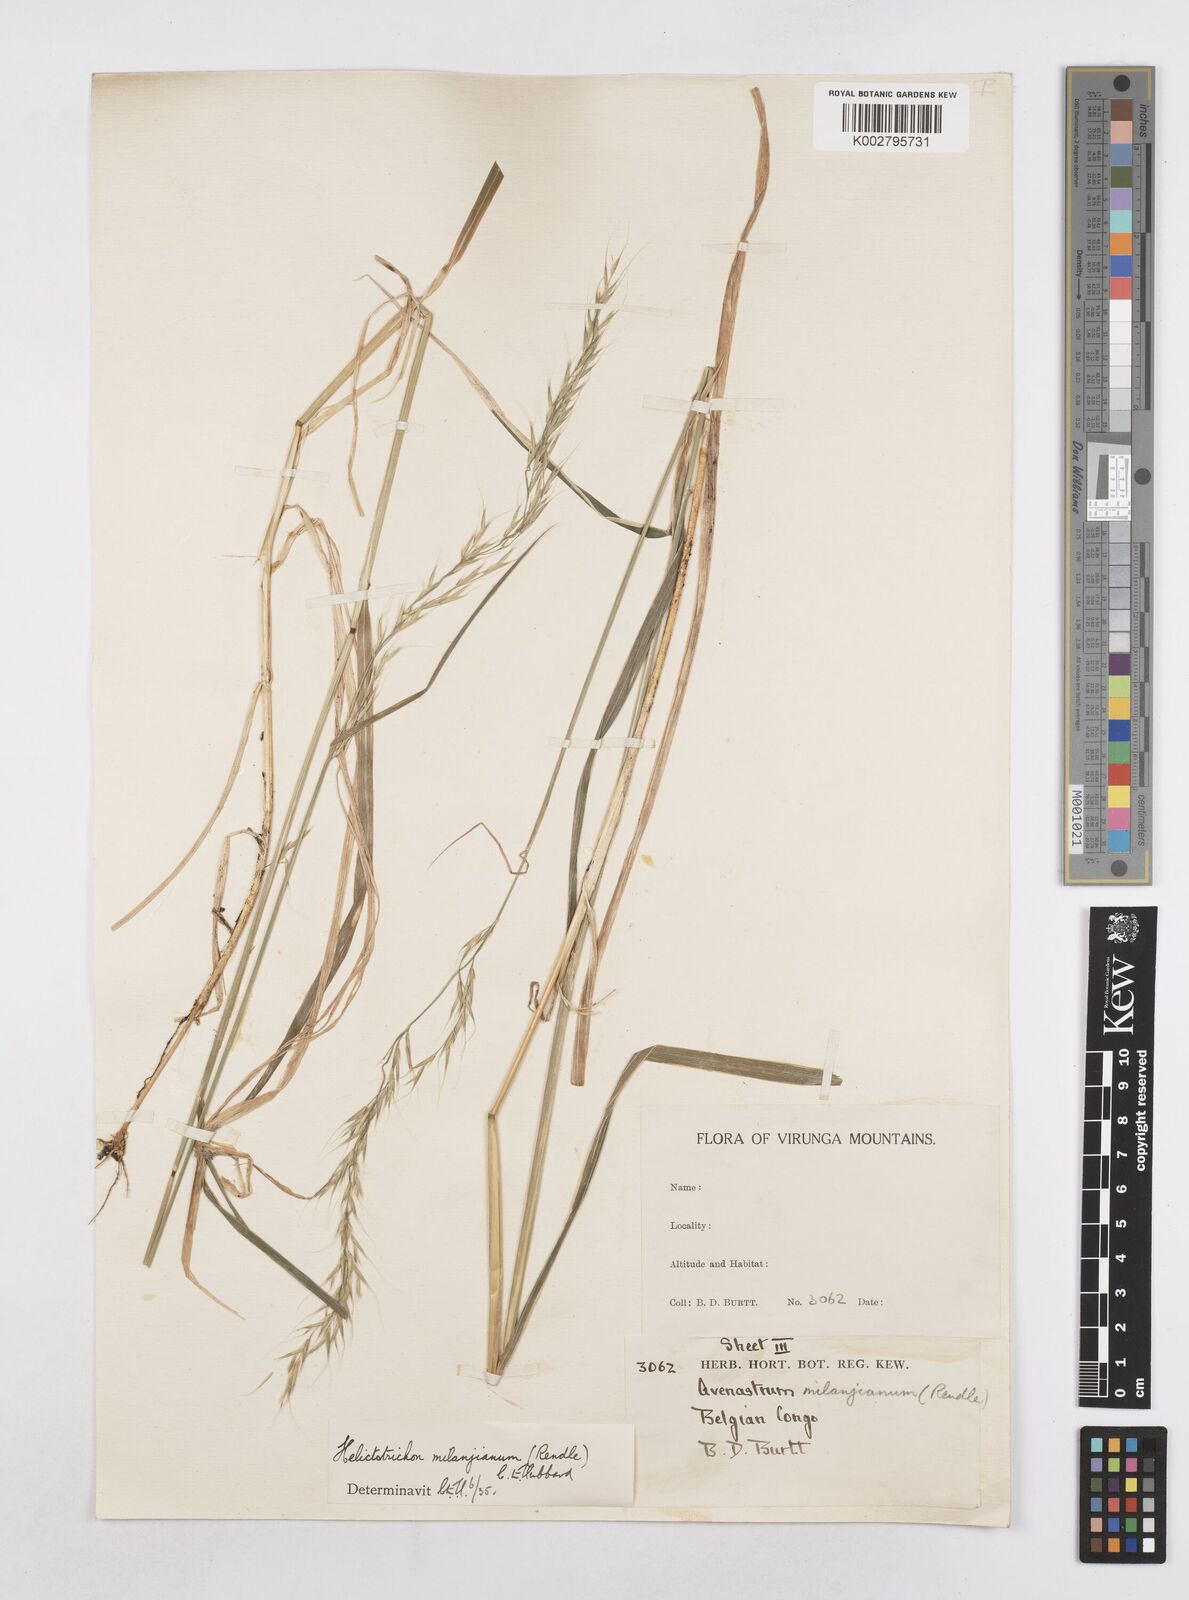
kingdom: Plantae
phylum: Tracheophyta
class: Liliopsida
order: Poales
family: Poaceae
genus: Trisetopsis
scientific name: Trisetopsis milanjiana
